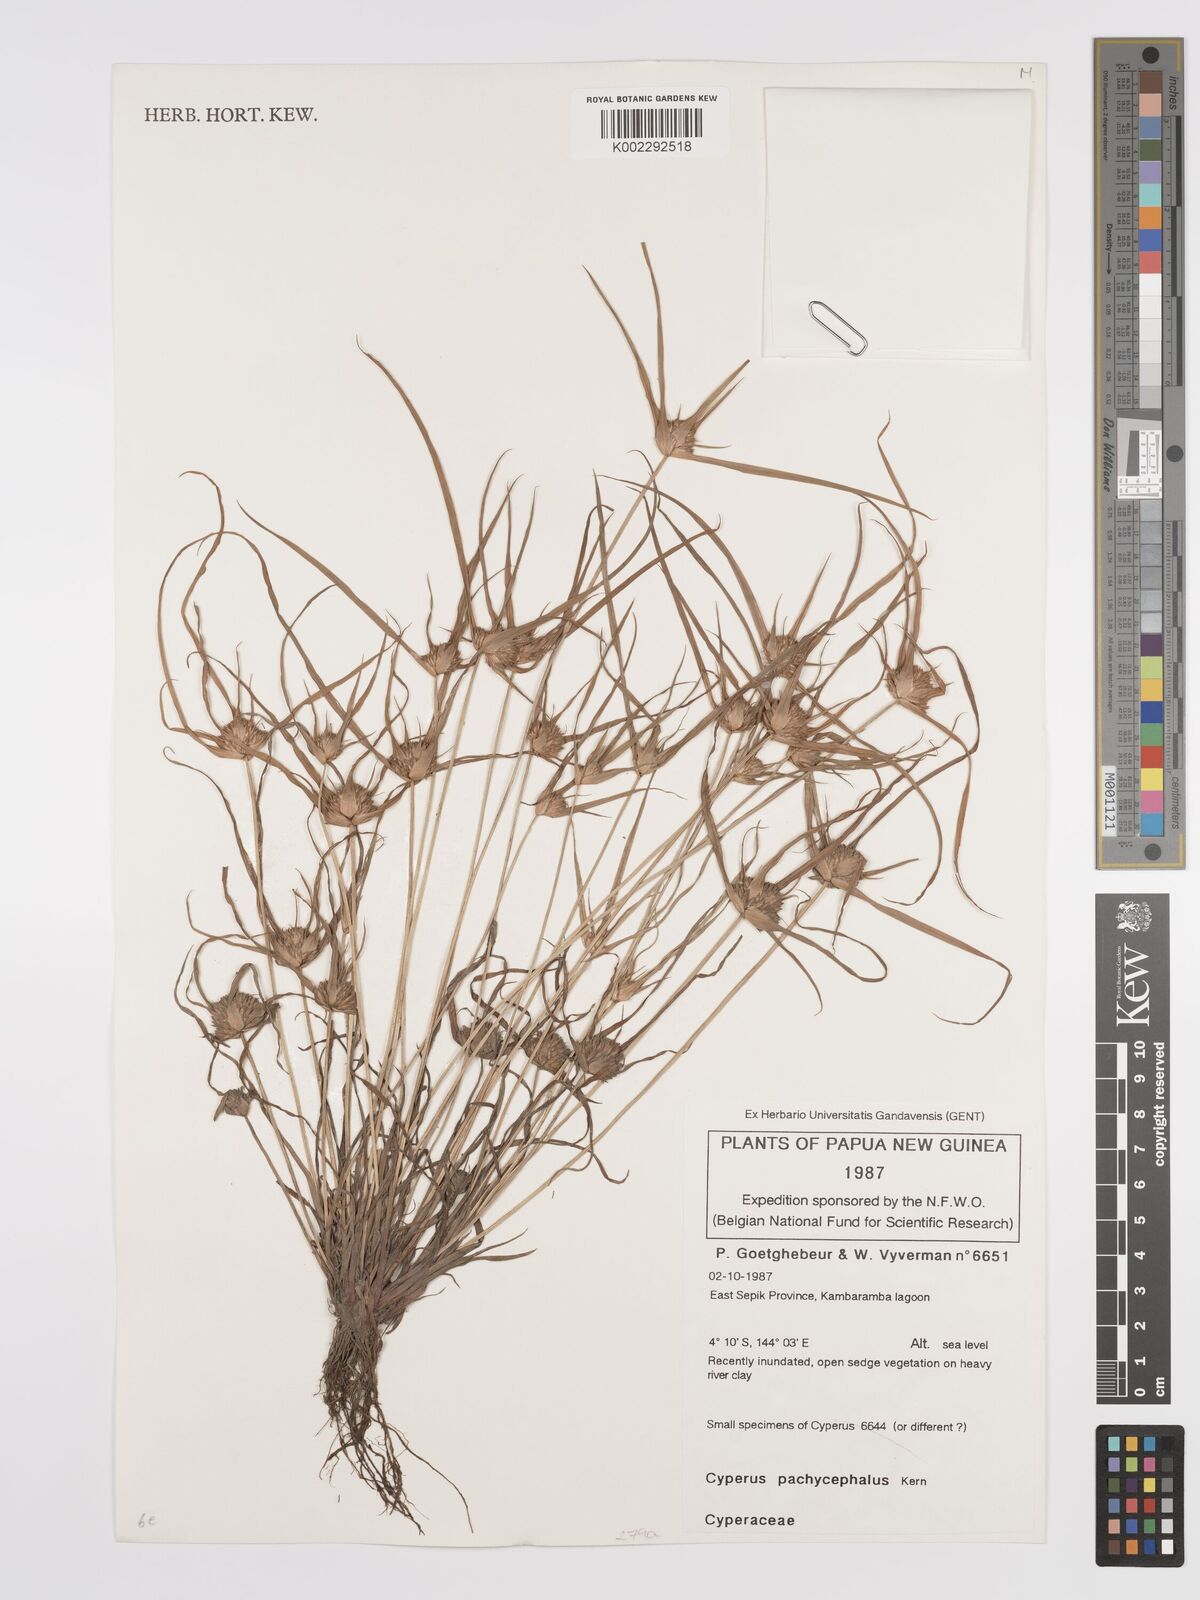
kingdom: Plantae
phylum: Tracheophyta
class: Liliopsida
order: Poales
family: Cyperaceae
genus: Cyperus
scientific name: Cyperus pachycephalus
